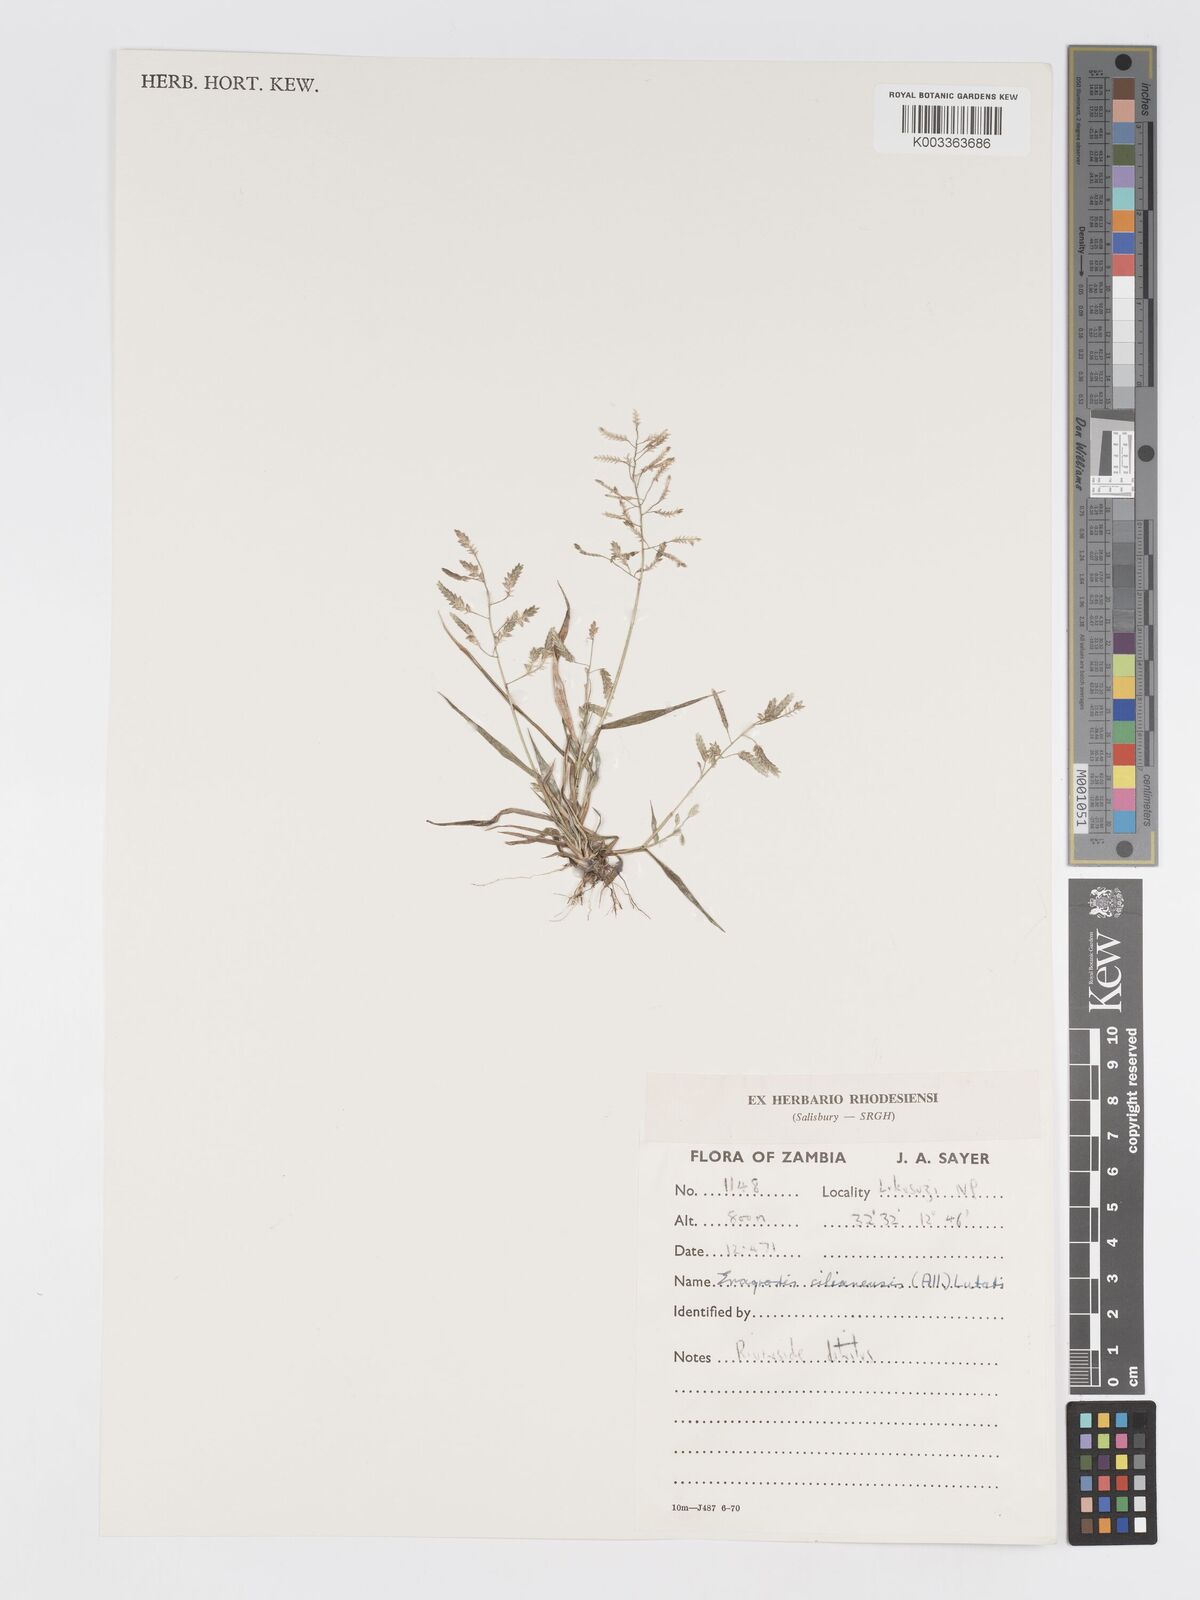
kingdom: Plantae
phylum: Tracheophyta
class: Liliopsida
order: Poales
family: Poaceae
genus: Eragrostis
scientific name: Eragrostis cilianensis
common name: Stinkgrass
